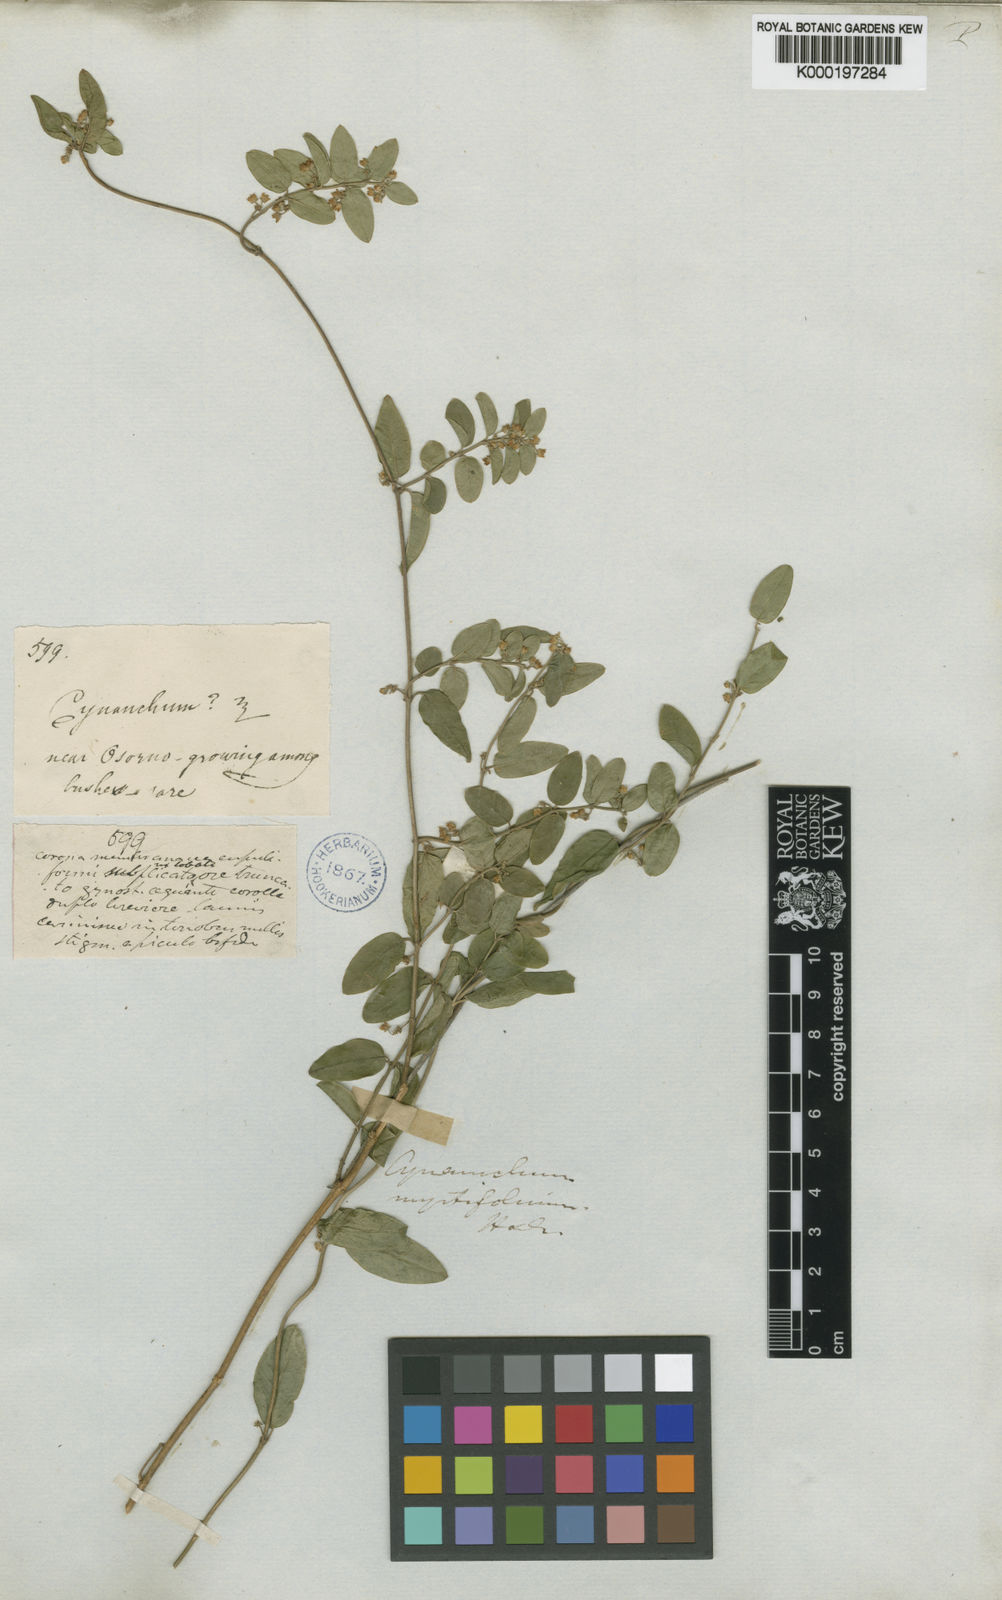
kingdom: Plantae
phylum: Tracheophyta
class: Magnoliopsida
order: Gentianales
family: Apocynaceae
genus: Diplolepis
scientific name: Diplolepis myrtifolia
